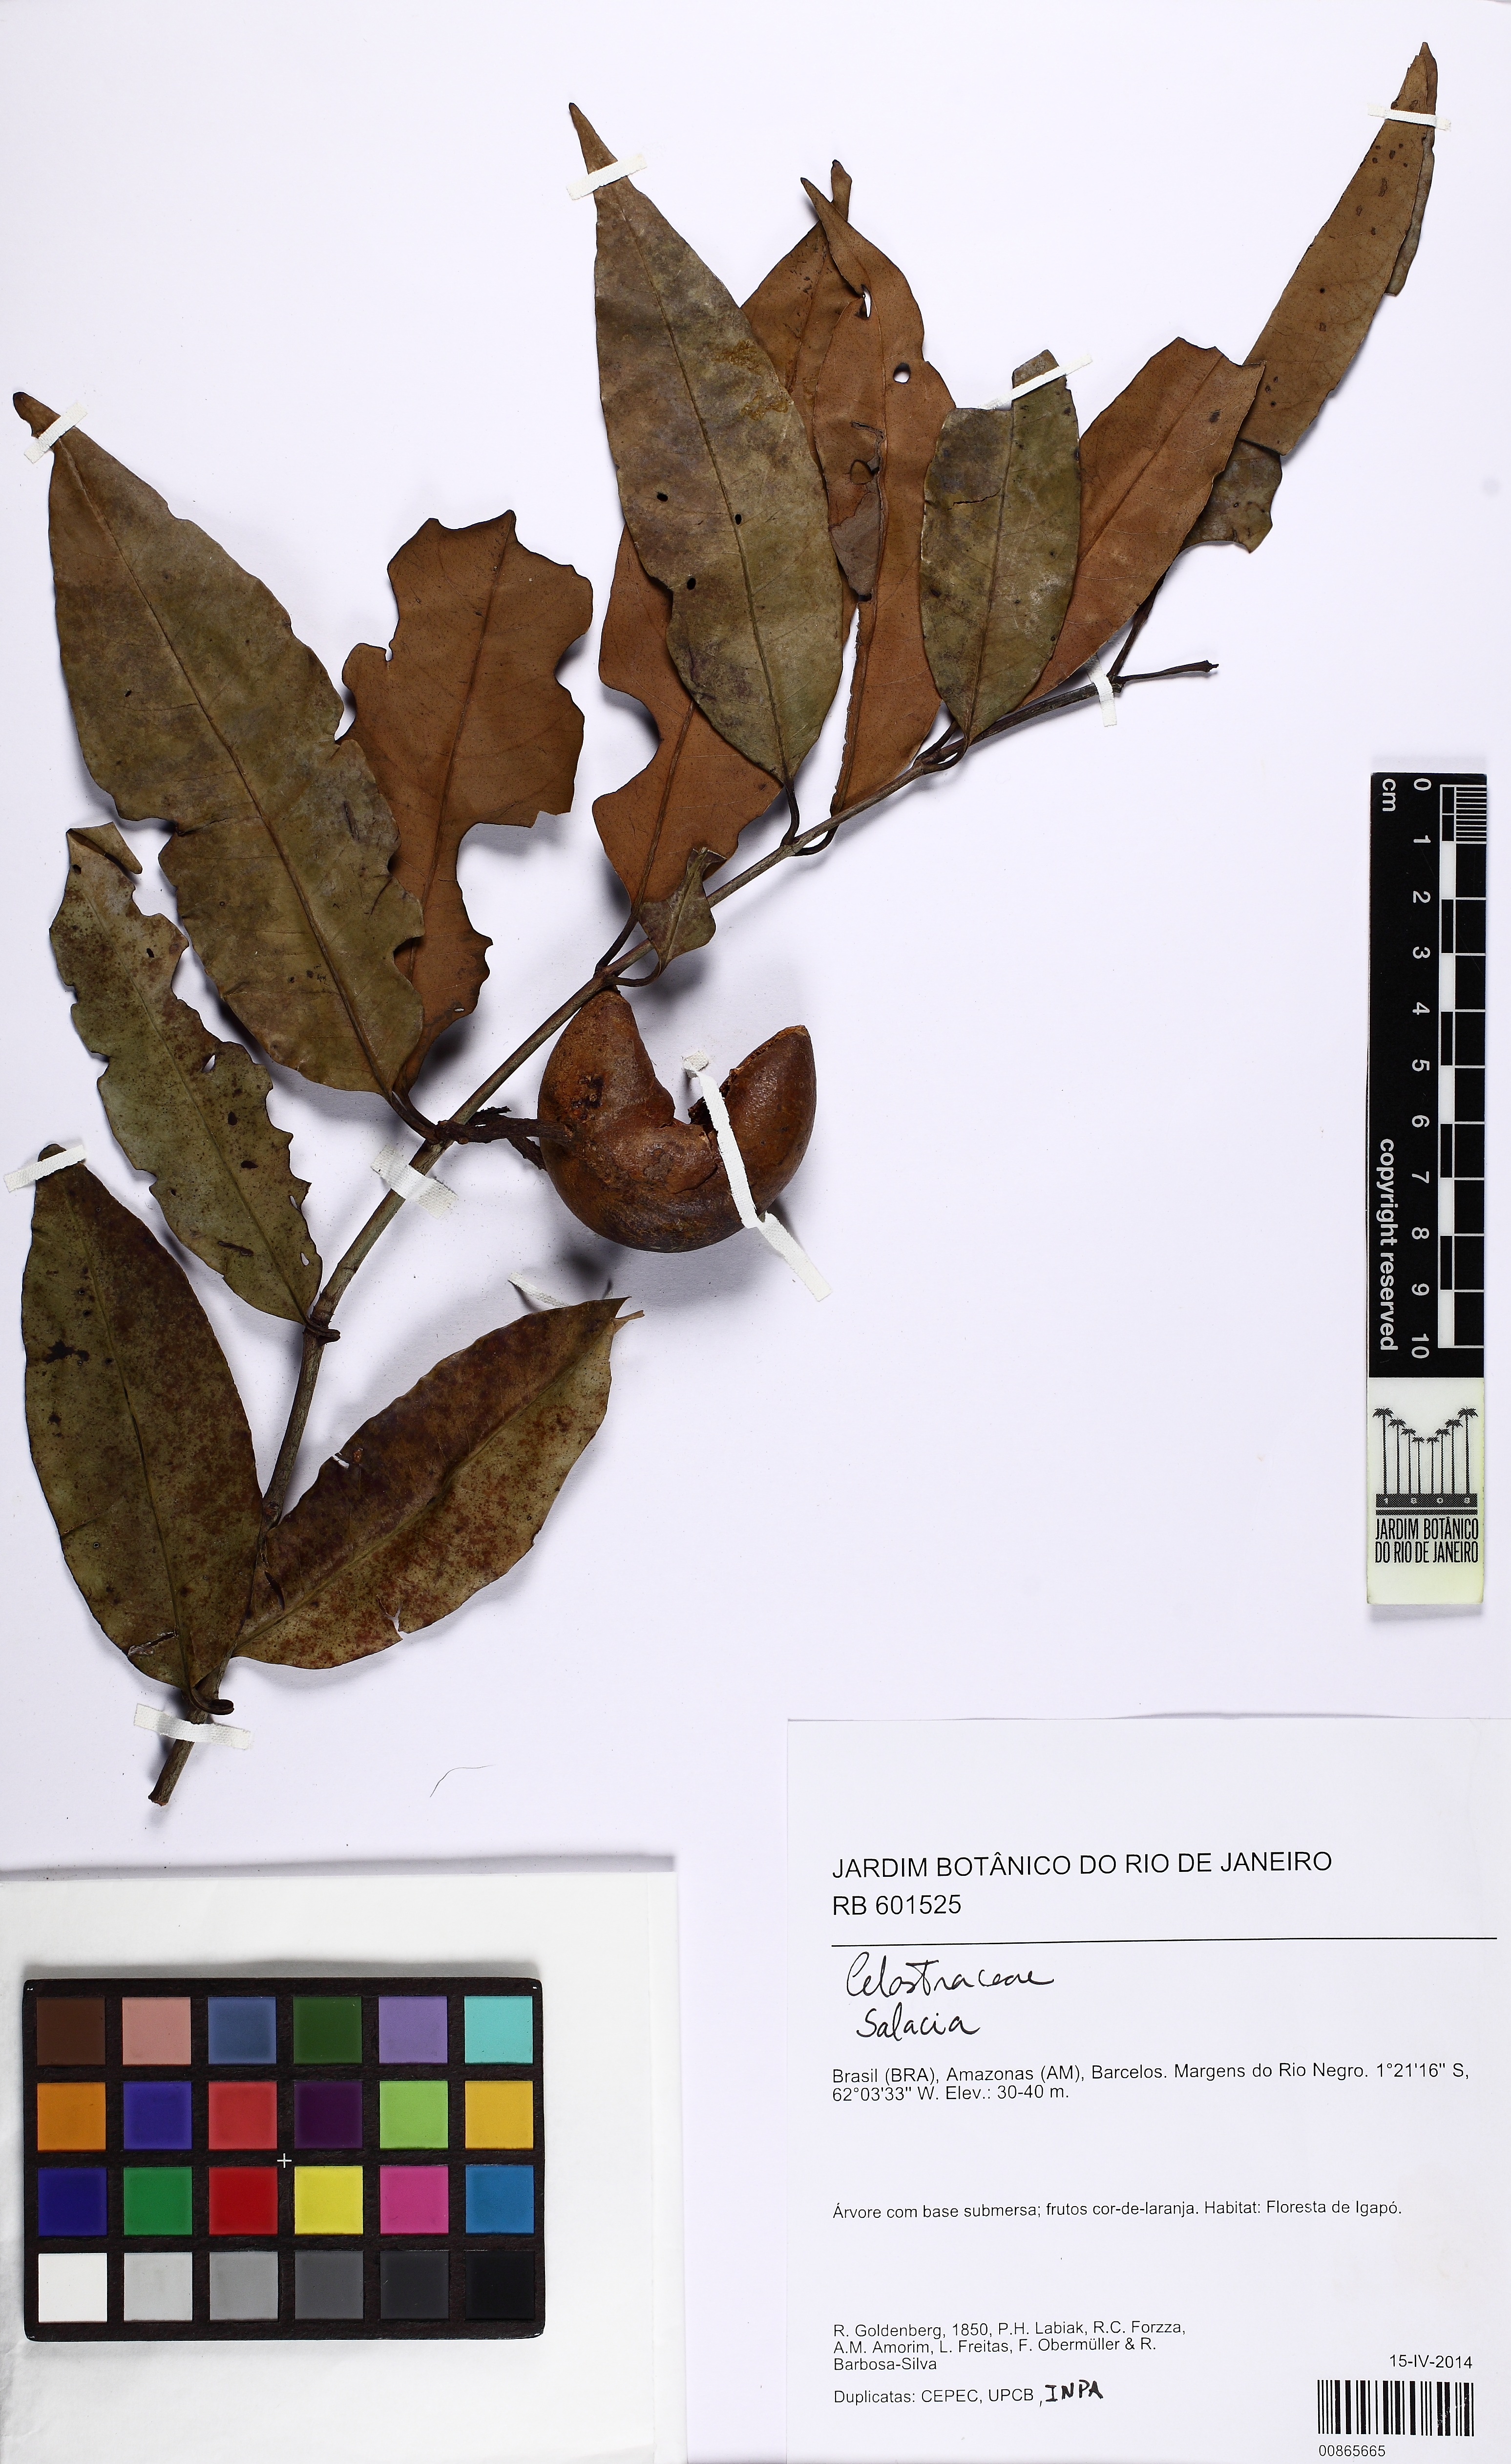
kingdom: Plantae
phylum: Tracheophyta
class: Magnoliopsida
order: Celastrales
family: Celastraceae
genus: Salacia
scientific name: Salacia
